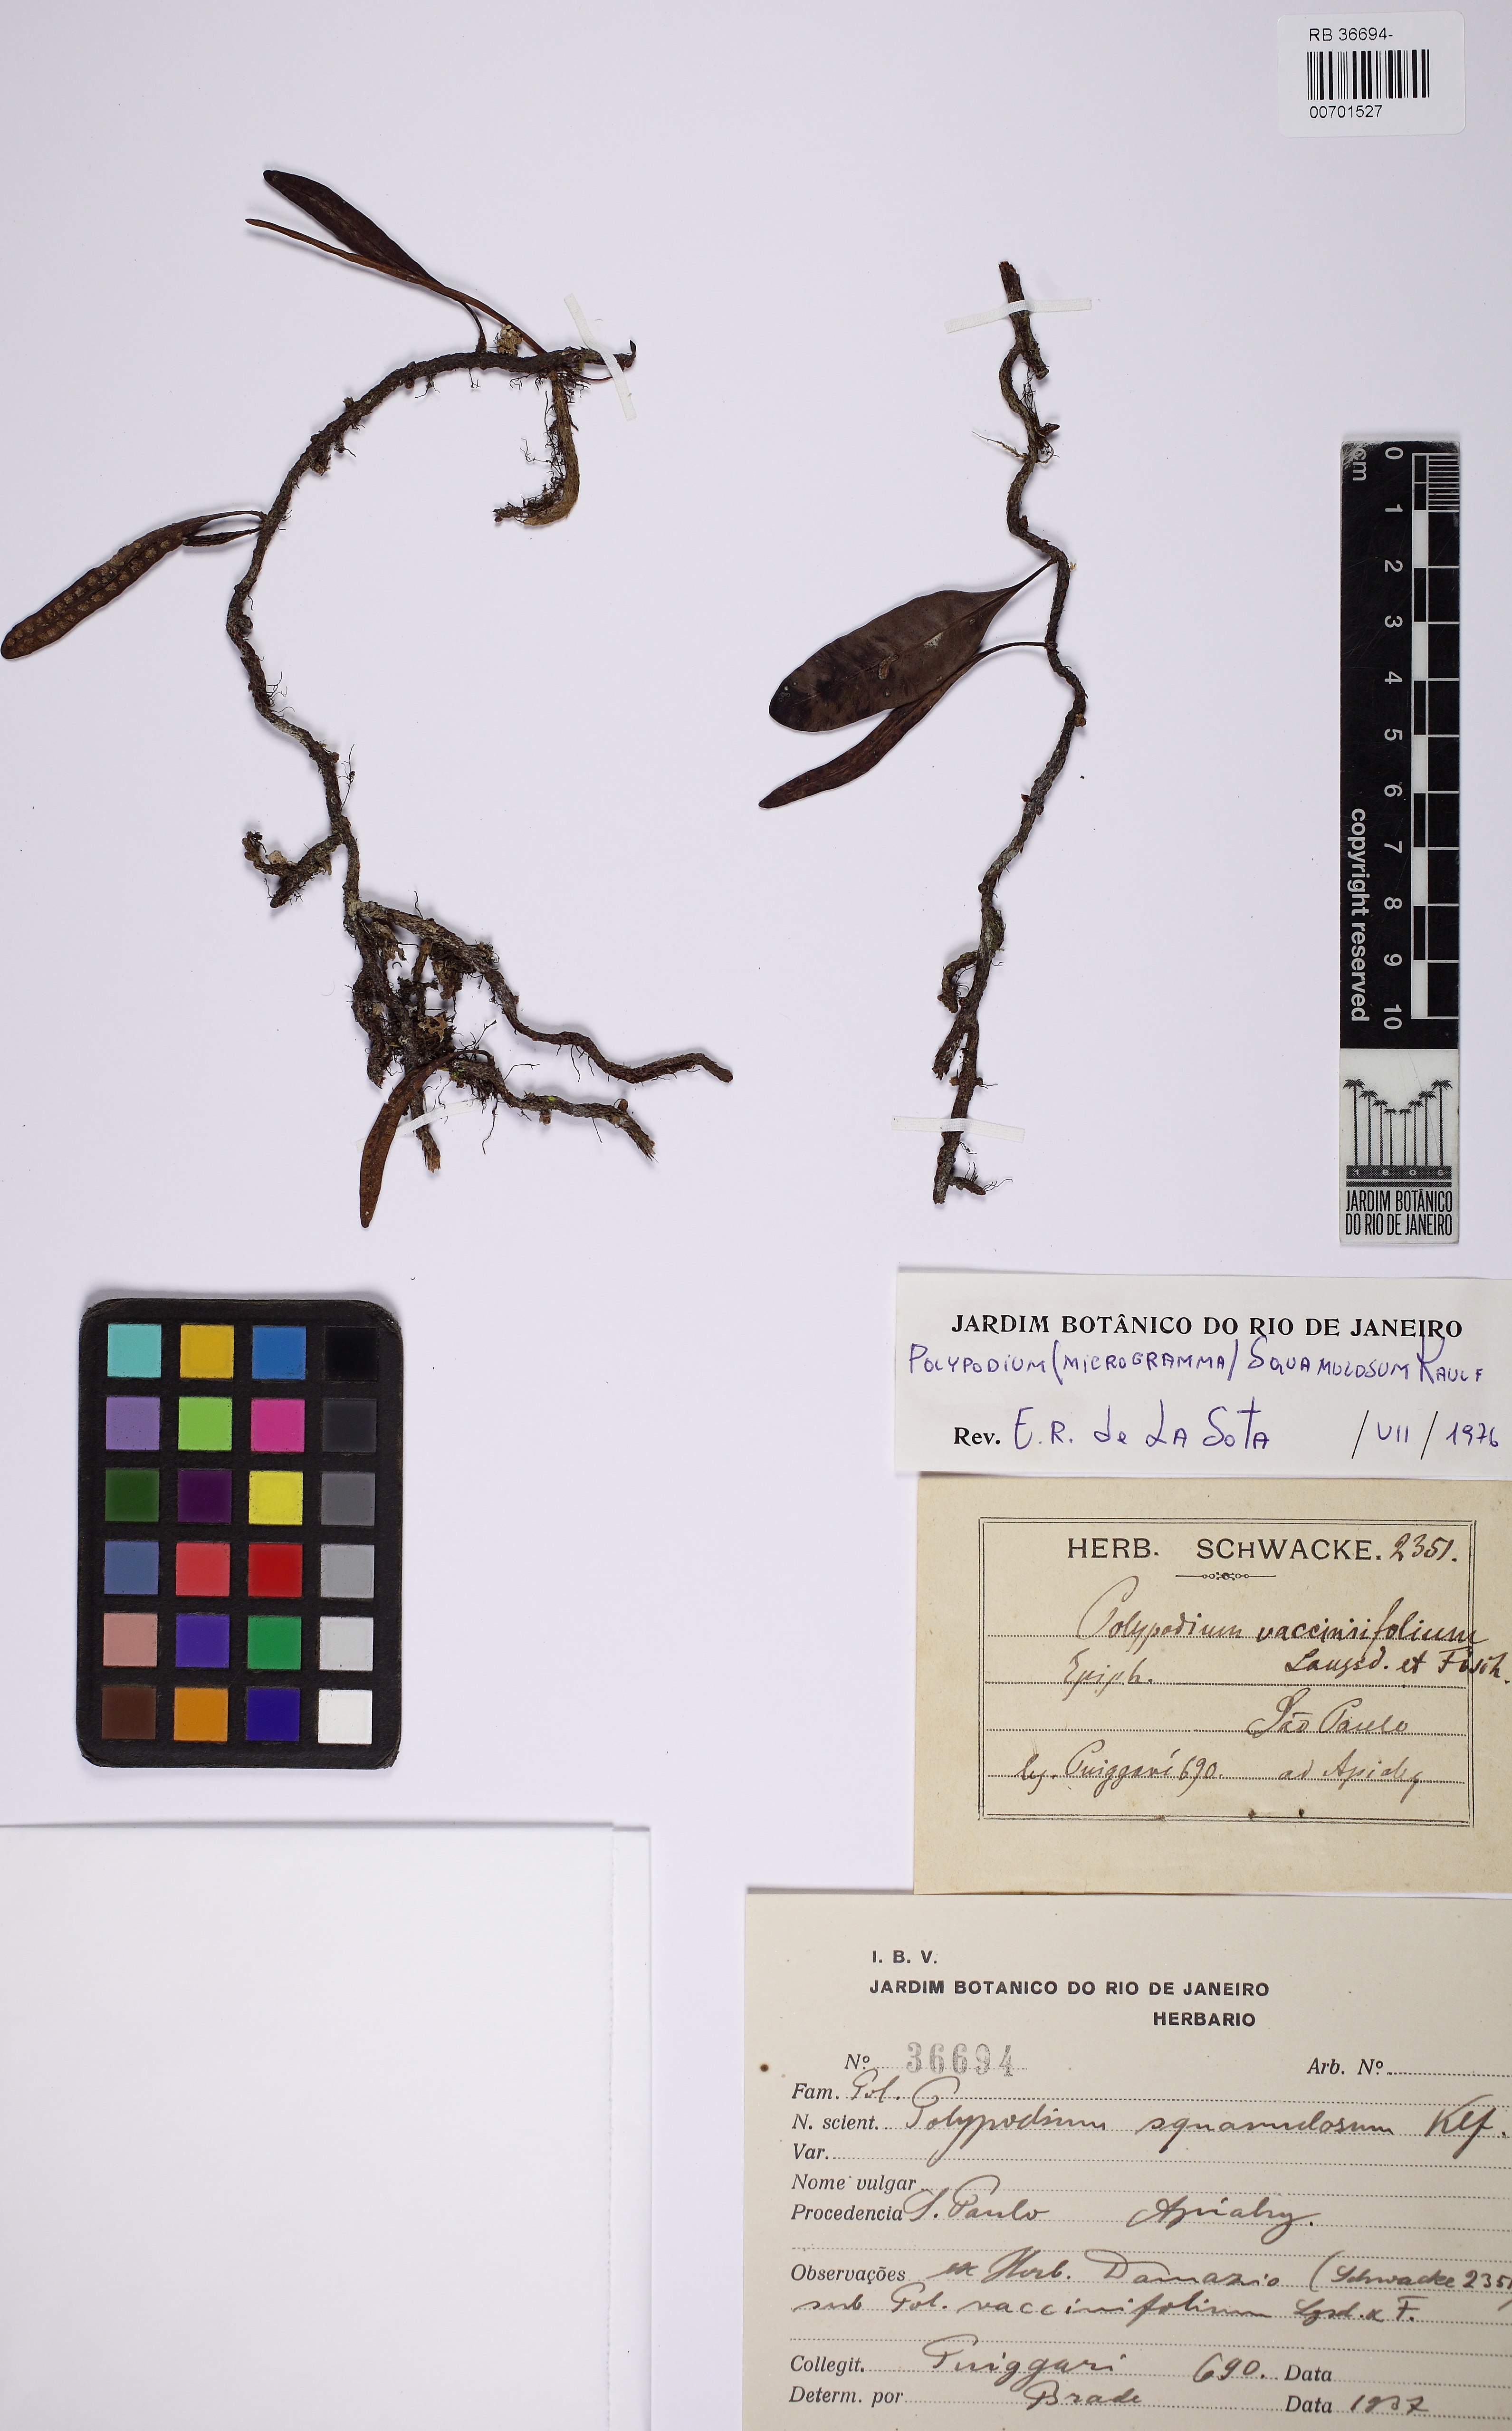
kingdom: Plantae
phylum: Tracheophyta
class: Polypodiopsida
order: Polypodiales
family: Polypodiaceae
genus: Microgramma
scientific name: Microgramma squamulosa
